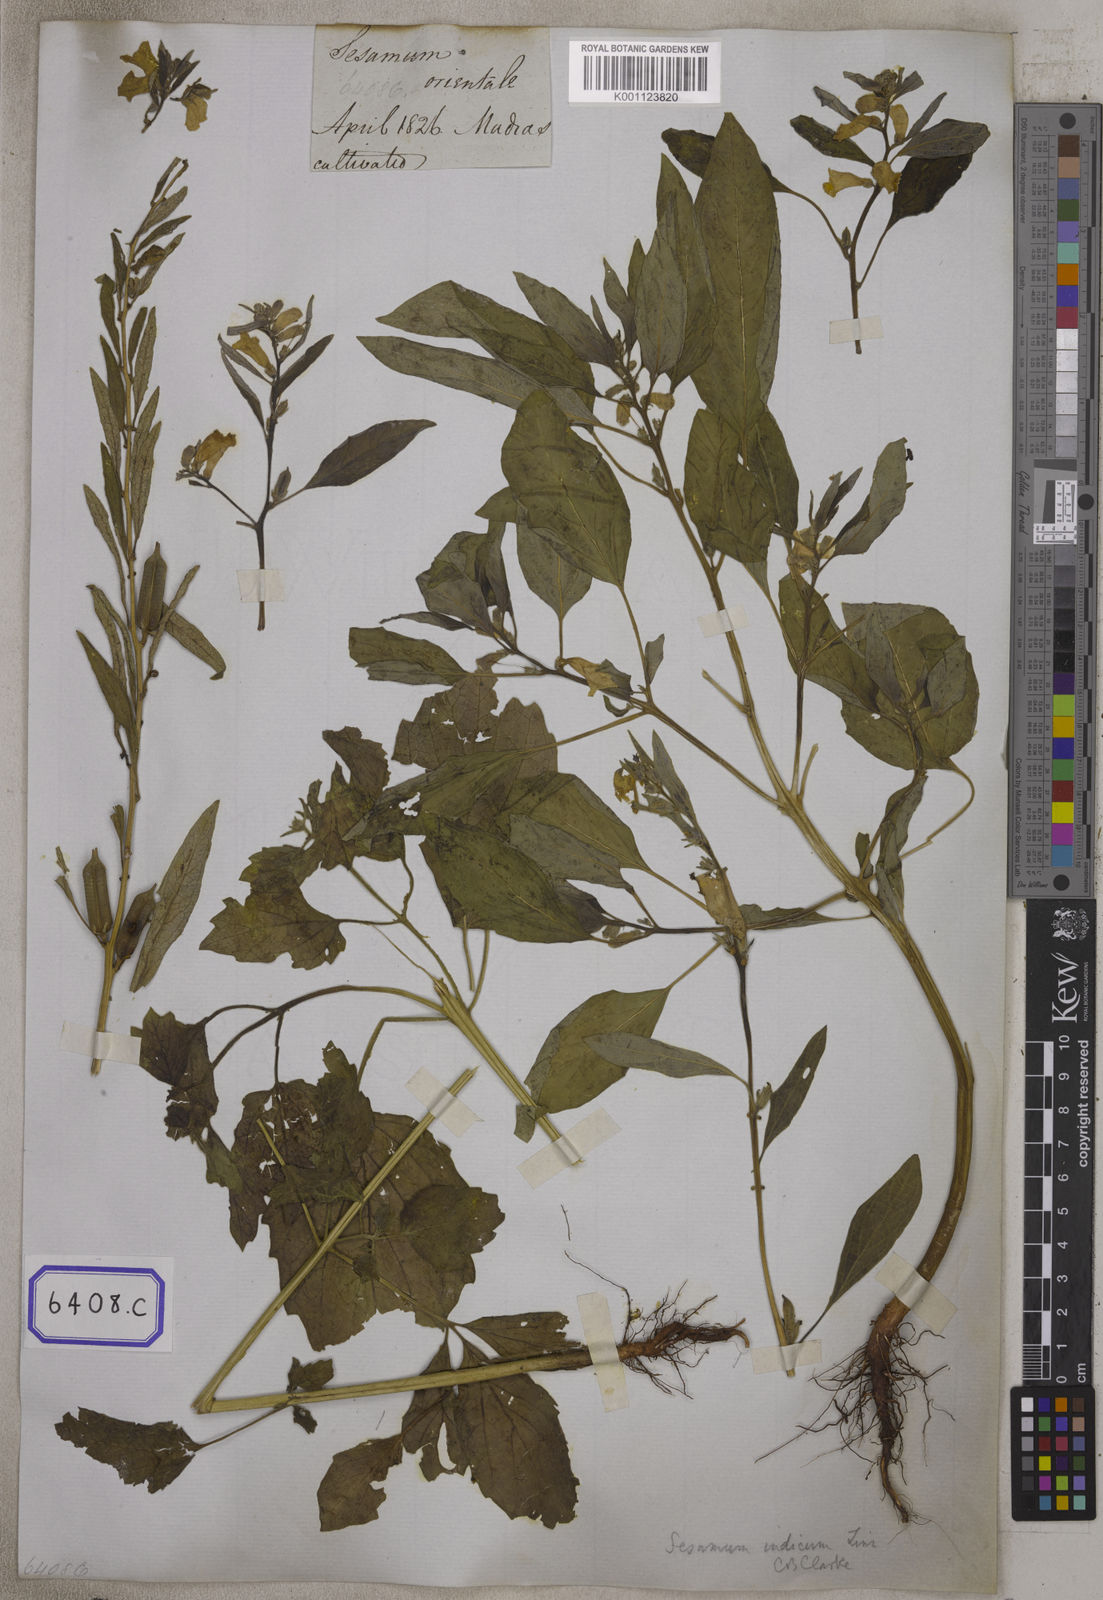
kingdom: Plantae
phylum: Tracheophyta
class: Magnoliopsida
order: Lamiales
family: Pedaliaceae
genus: Sesamum
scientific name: Sesamum indicum
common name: Sesame
